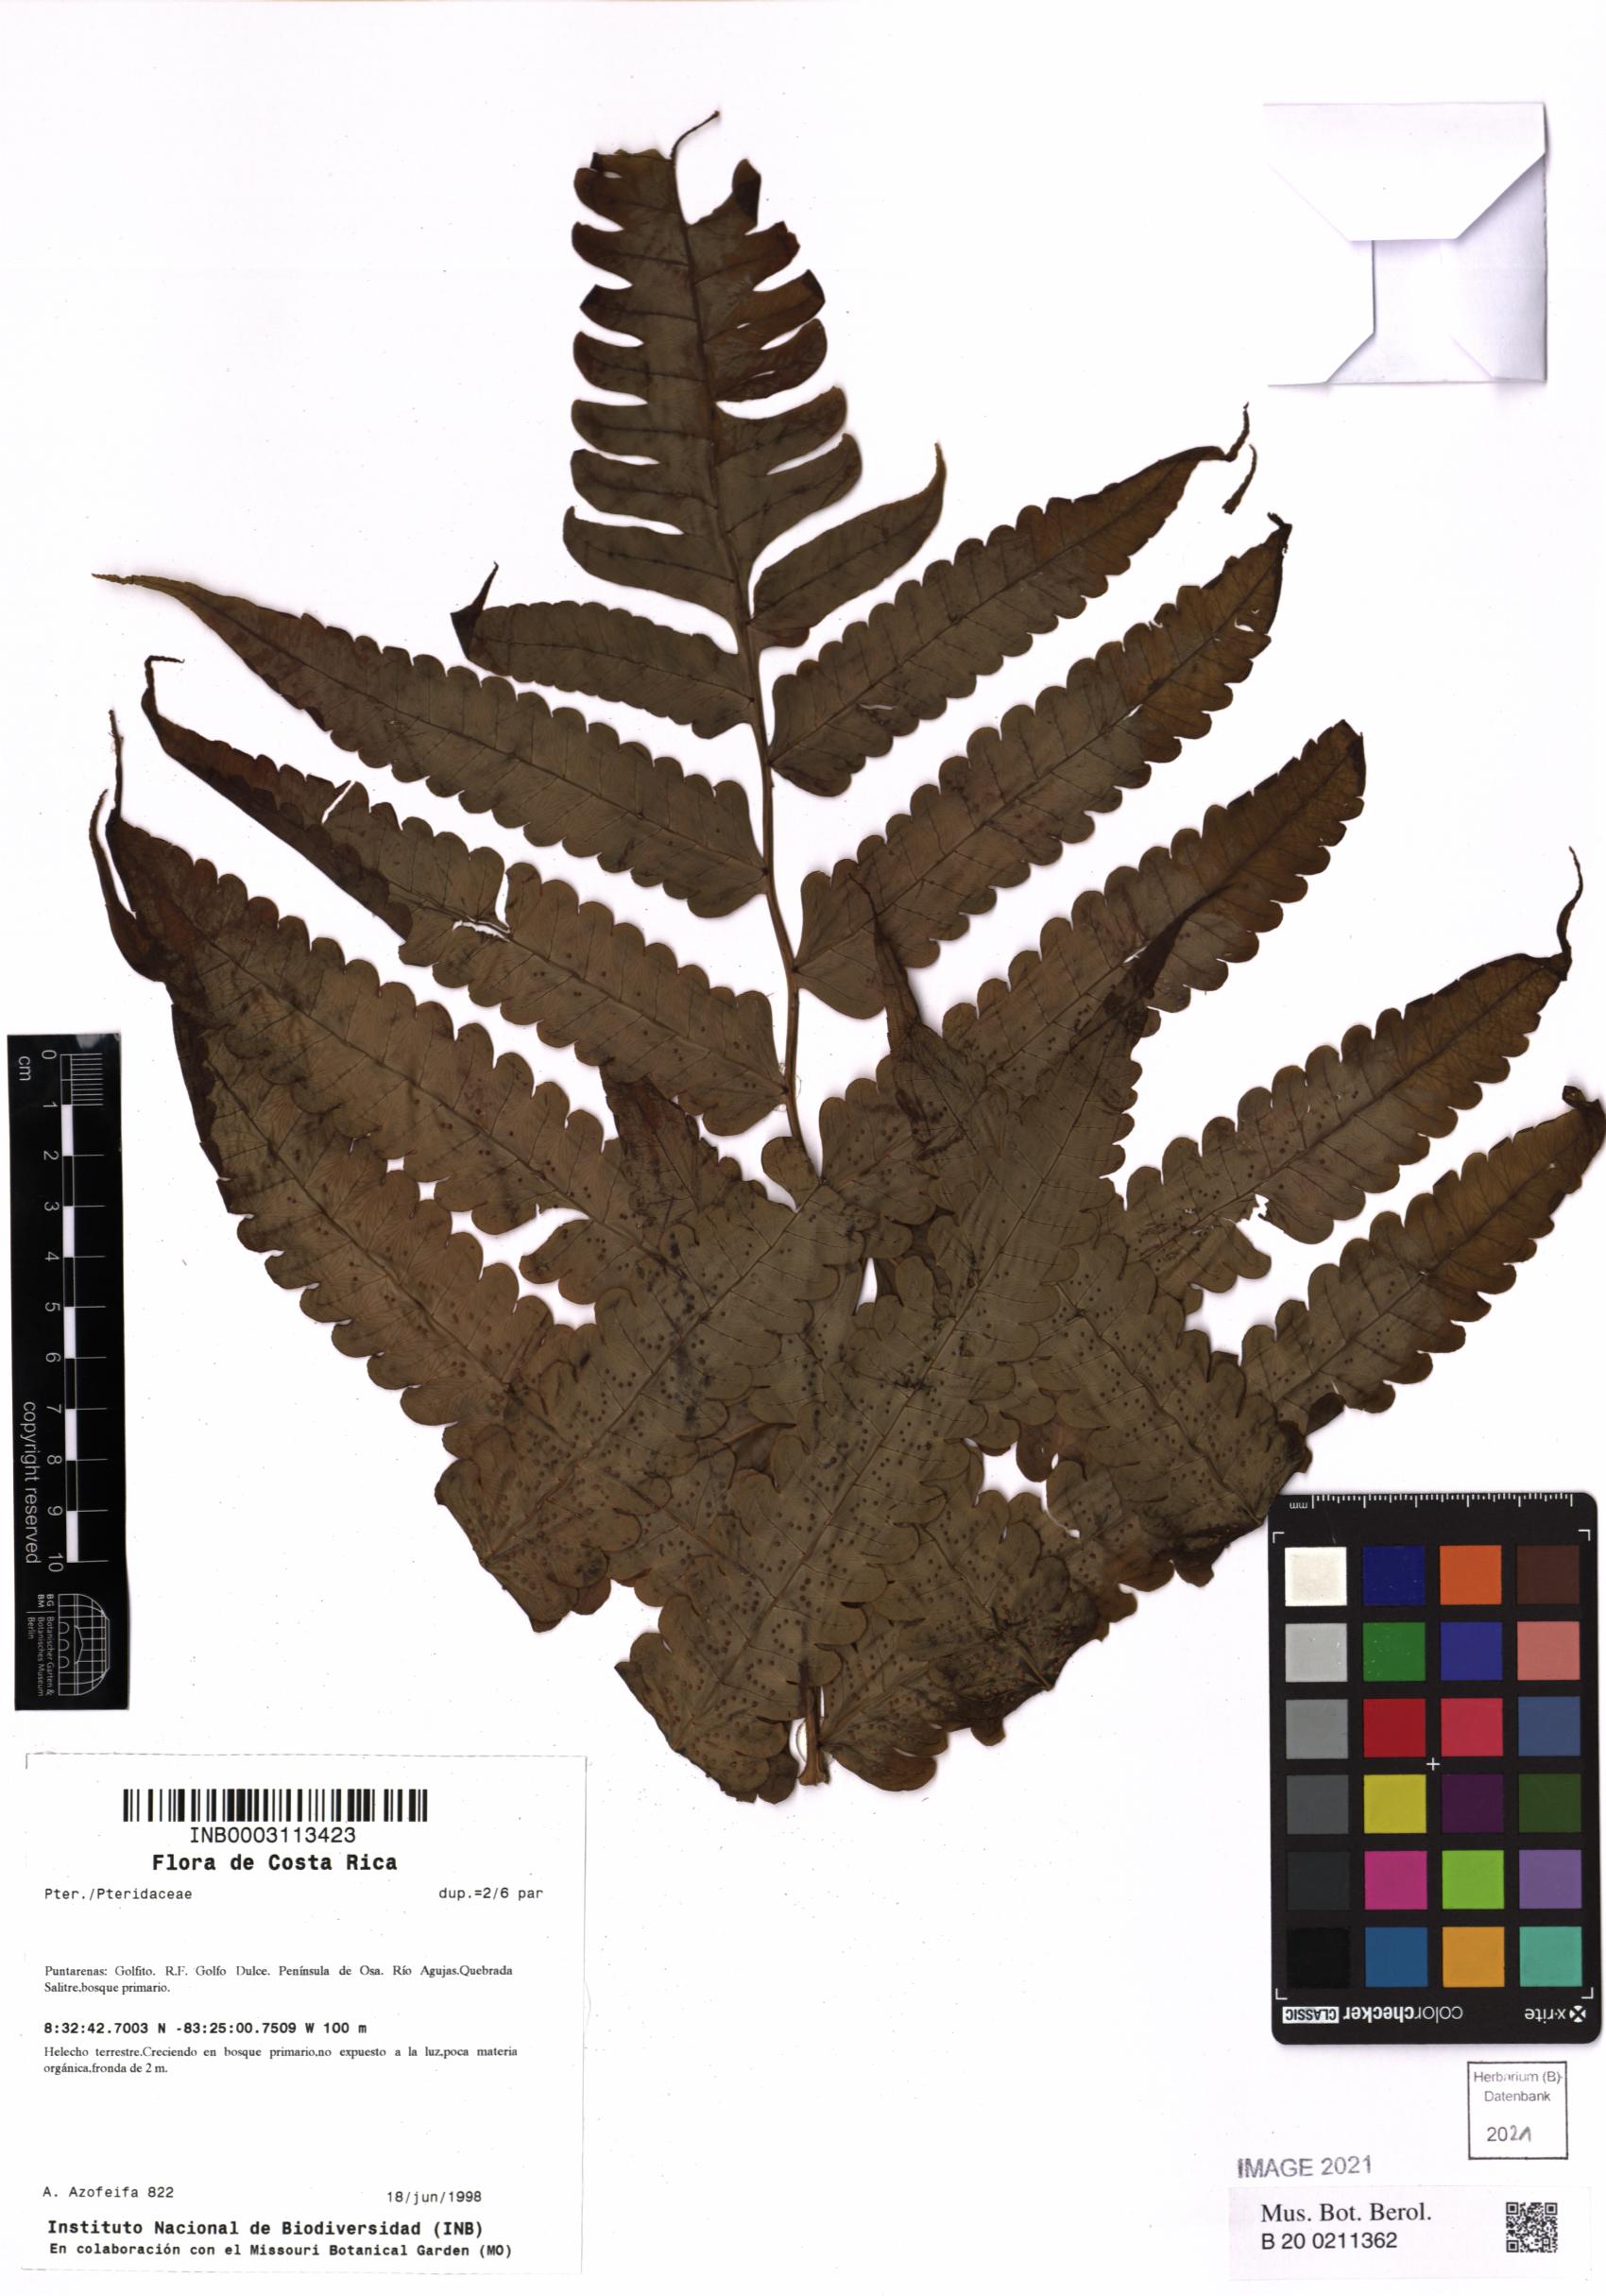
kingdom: Plantae
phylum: Tracheophyta
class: Polypodiopsida
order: Polypodiales
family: Pteridaceae
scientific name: Pteridaceae
